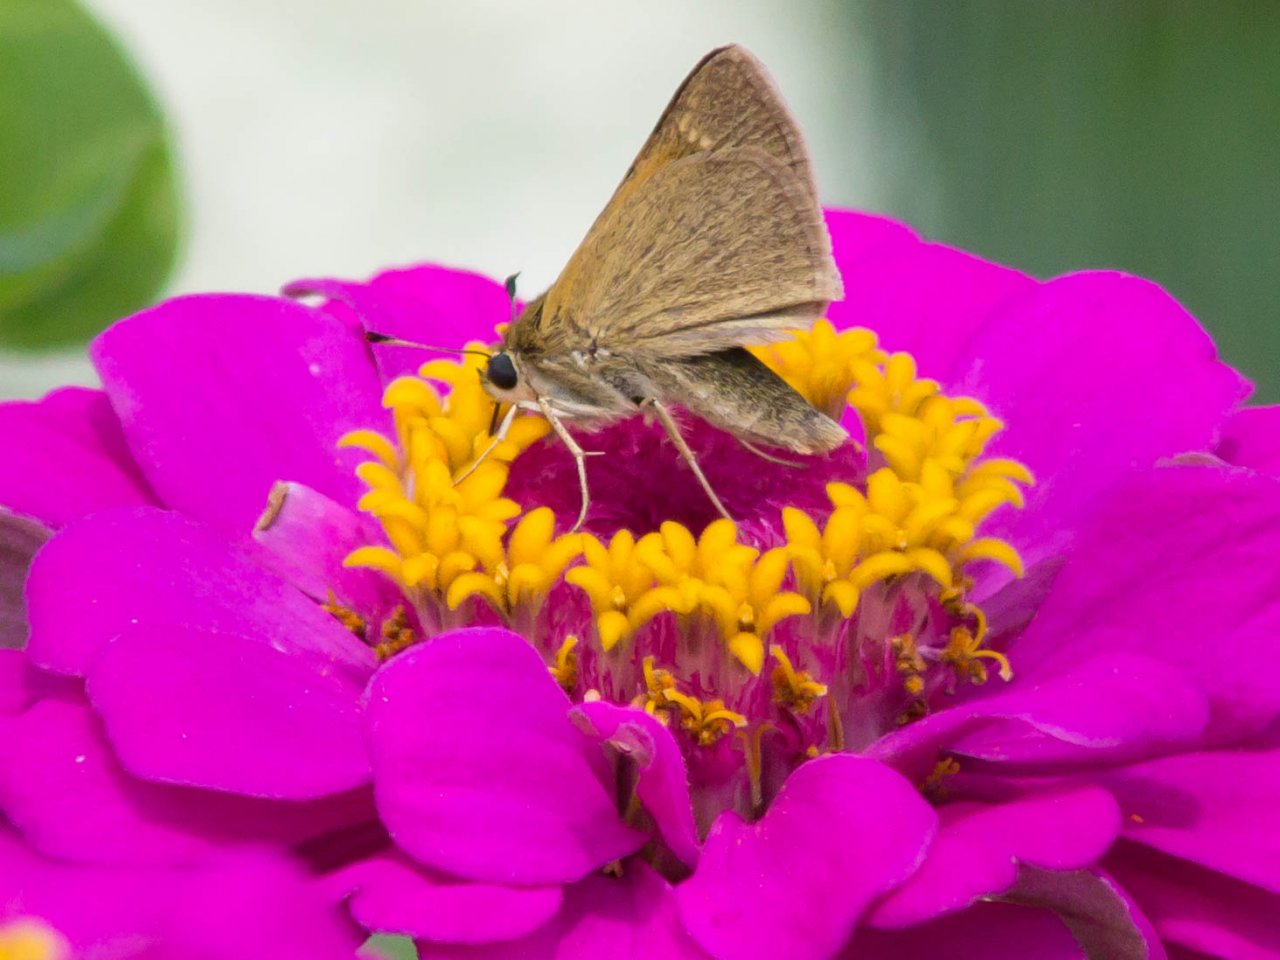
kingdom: Animalia
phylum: Arthropoda
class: Insecta
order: Lepidoptera
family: Hesperiidae
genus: Polites
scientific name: Polites themistocles
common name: Tawny-edged Skipper
